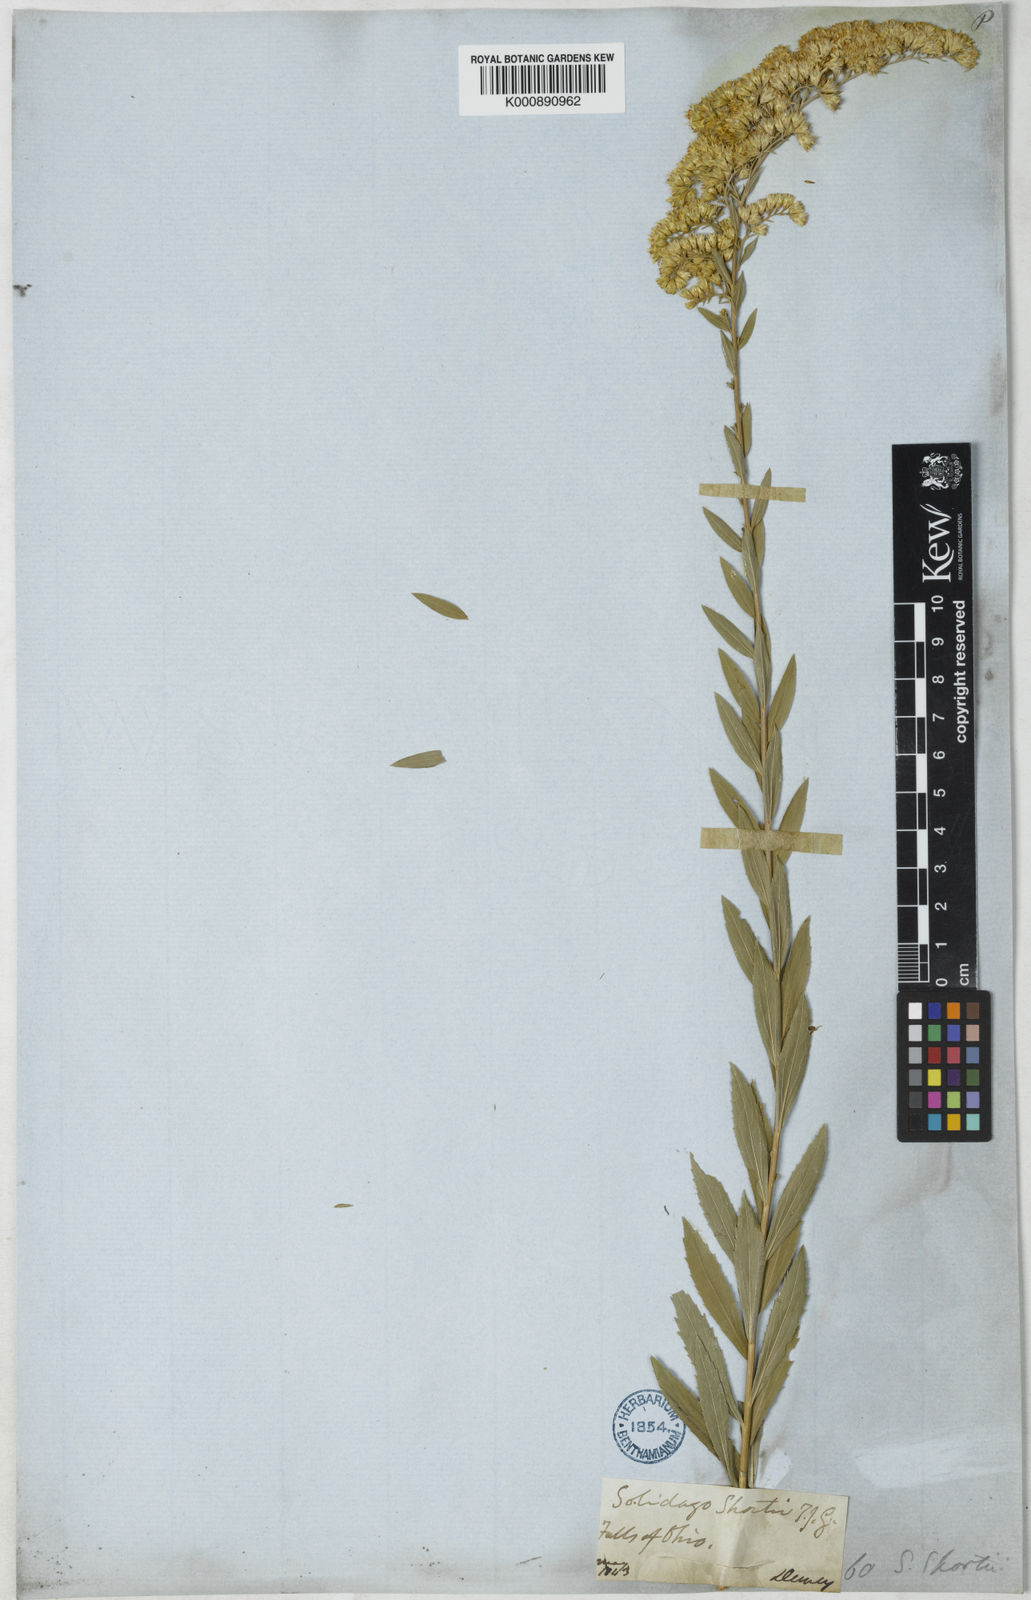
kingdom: Plantae
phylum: Tracheophyta
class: Magnoliopsida
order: Asterales
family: Asteraceae
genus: Solidago
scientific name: Solidago shortii
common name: Short's goldenrod
